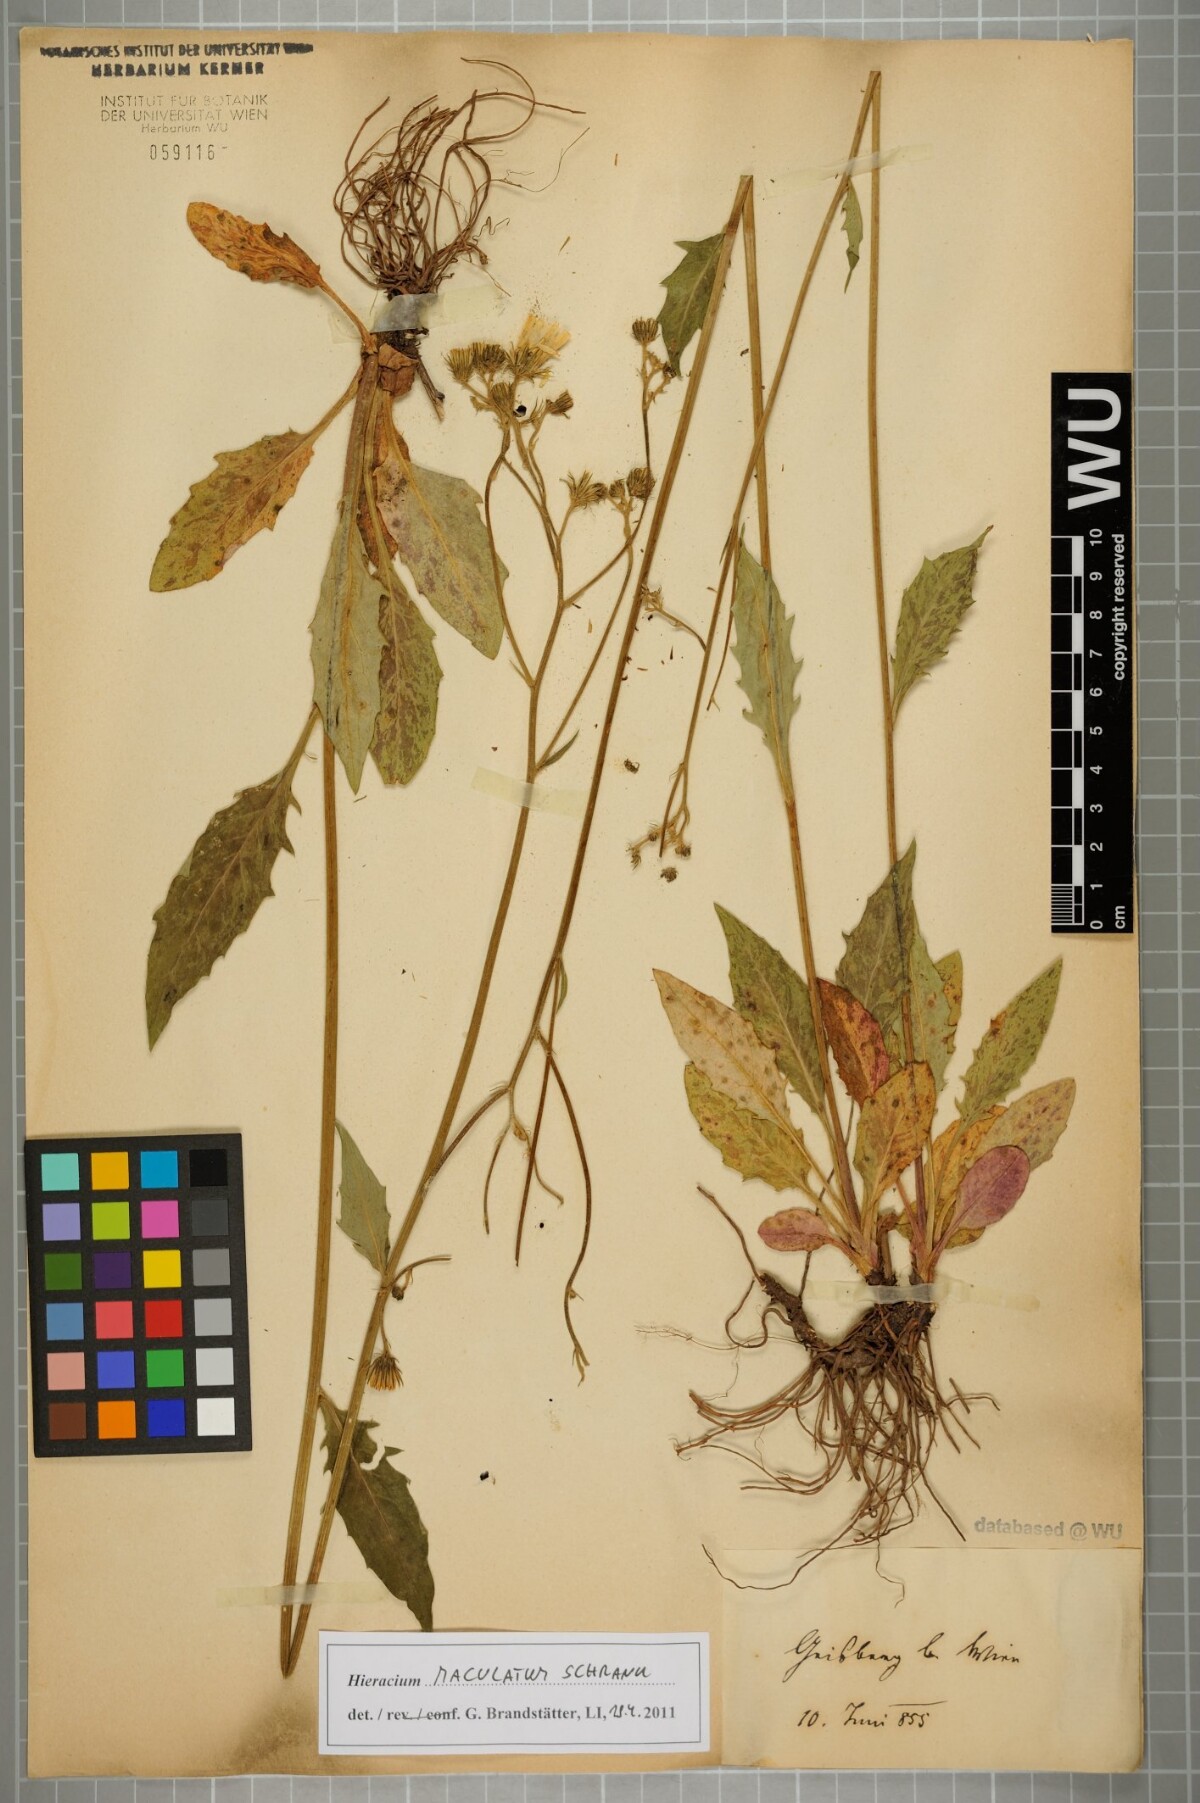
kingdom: Plantae
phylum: Tracheophyta
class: Magnoliopsida
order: Asterales
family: Asteraceae
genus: Hieracium
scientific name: Hieracium maculatum
